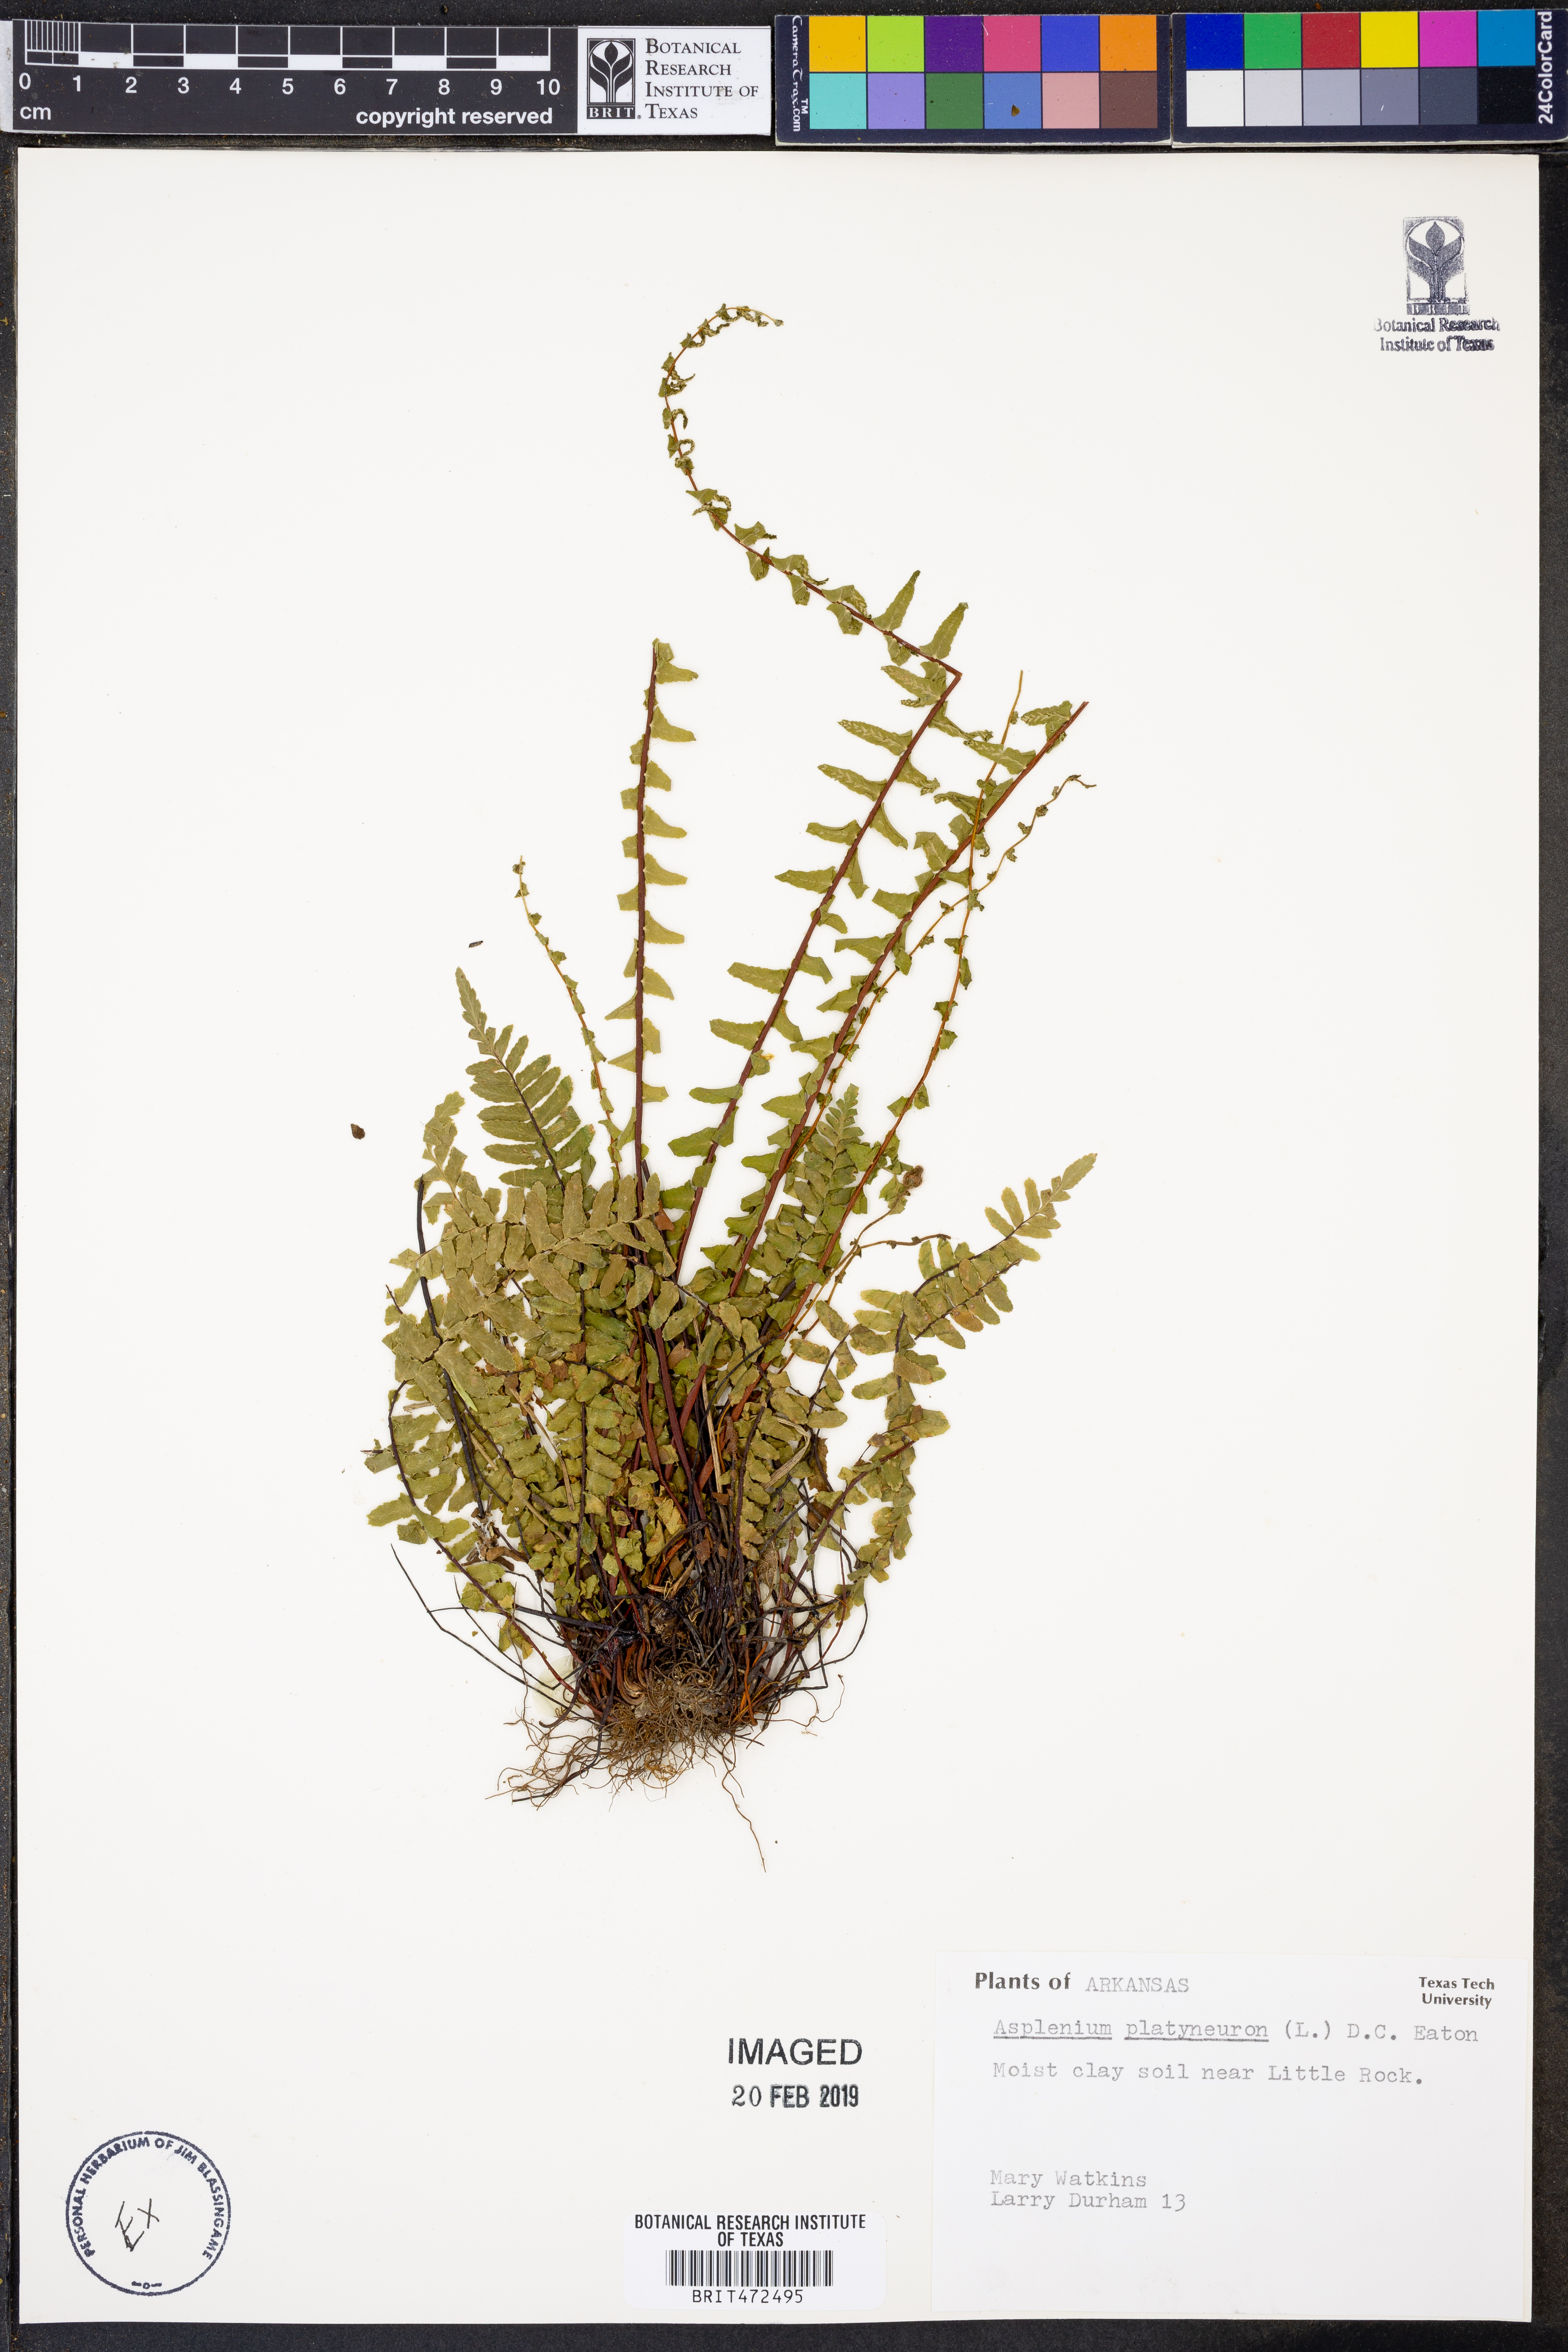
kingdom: Plantae
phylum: Tracheophyta
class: Polypodiopsida
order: Polypodiales
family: Aspleniaceae
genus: Asplenium
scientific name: Asplenium platyneuron
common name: Ebony spleenwort
